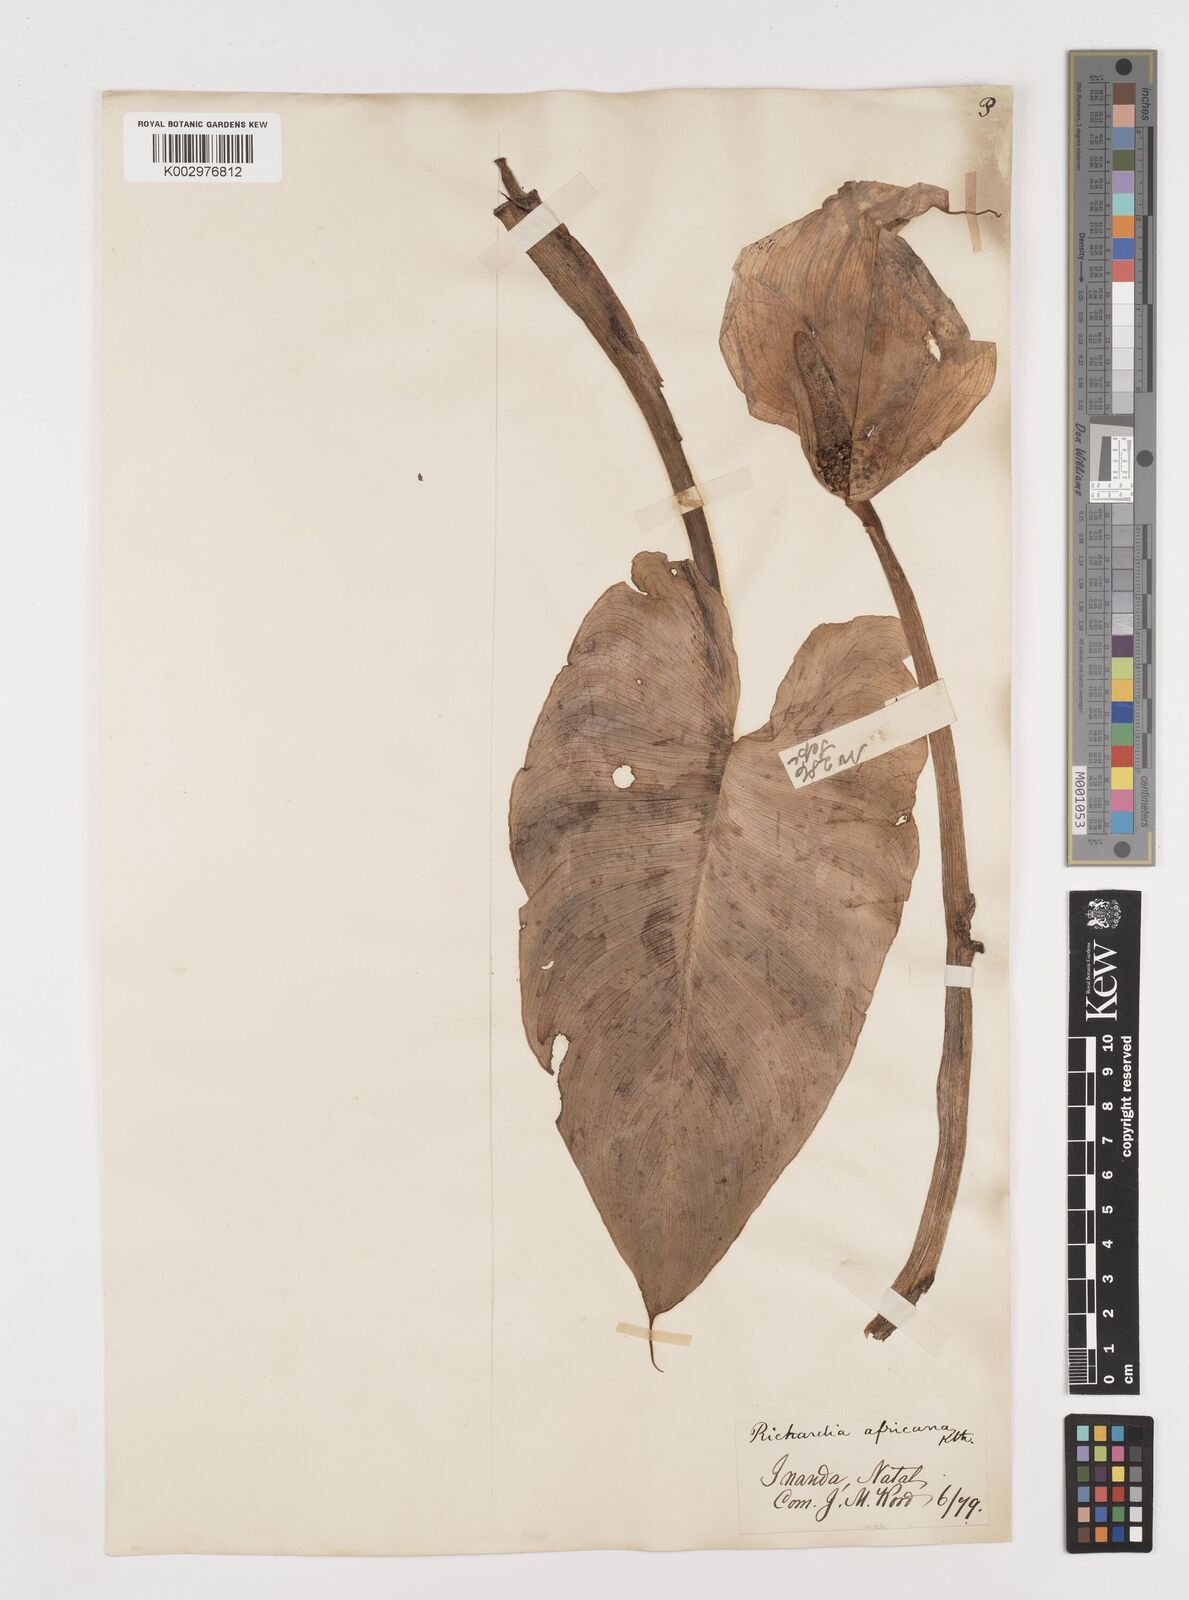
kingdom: Plantae
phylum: Tracheophyta
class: Liliopsida
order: Alismatales
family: Araceae
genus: Zantedeschia
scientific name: Zantedeschia aethiopica
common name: Altar-lily
